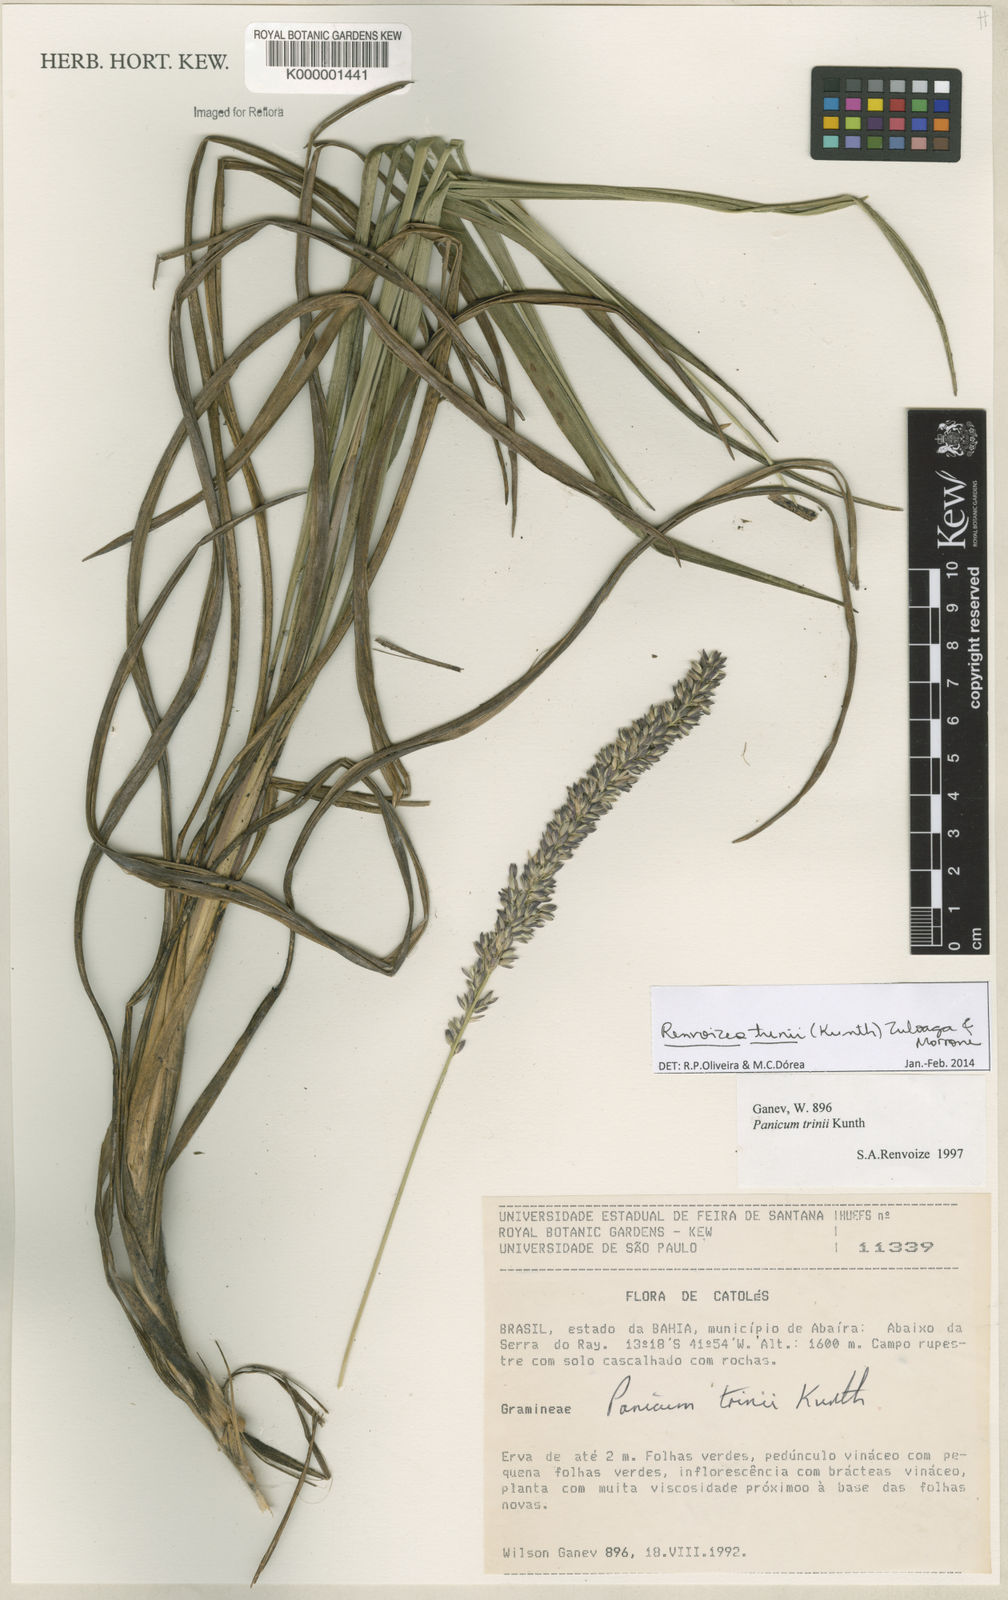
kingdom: Plantae
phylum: Tracheophyta
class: Liliopsida
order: Poales
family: Poaceae
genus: Renvoizea
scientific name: Renvoizea trinii
